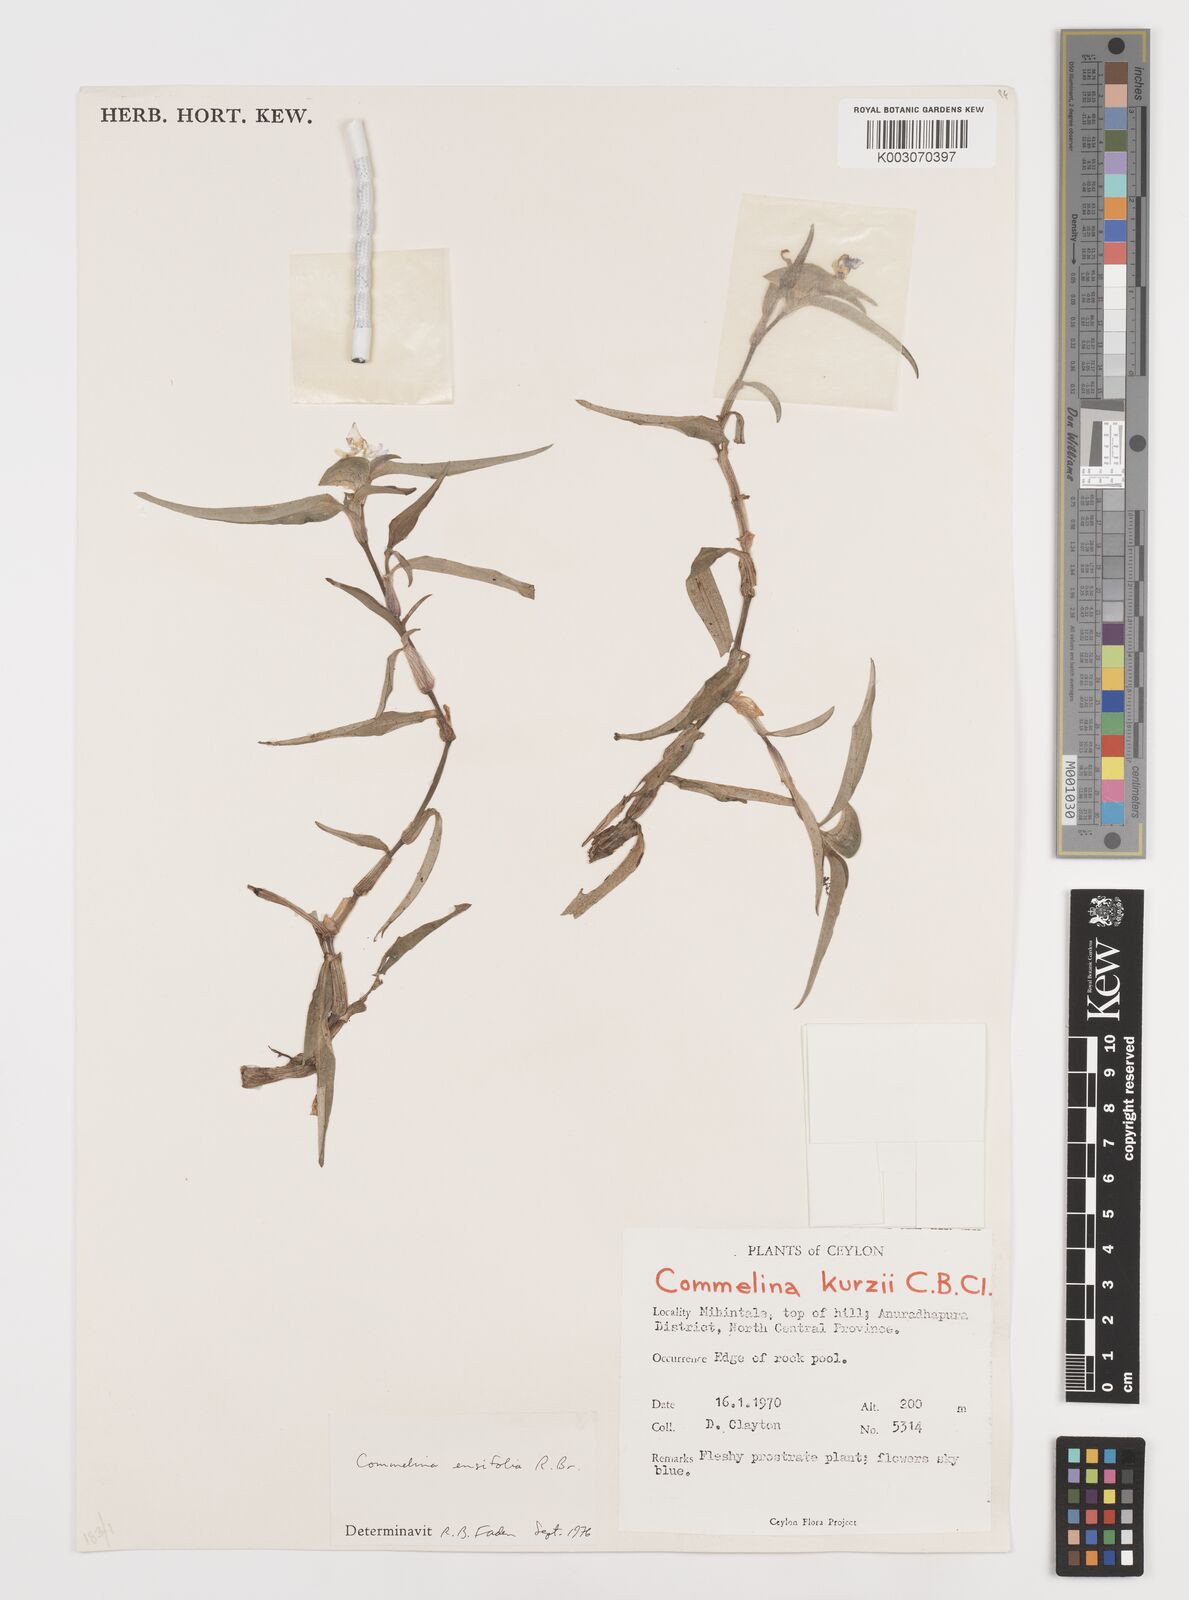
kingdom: Plantae
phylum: Tracheophyta
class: Liliopsida
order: Commelinales
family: Commelinaceae
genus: Commelina
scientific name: Commelina ensifolia
